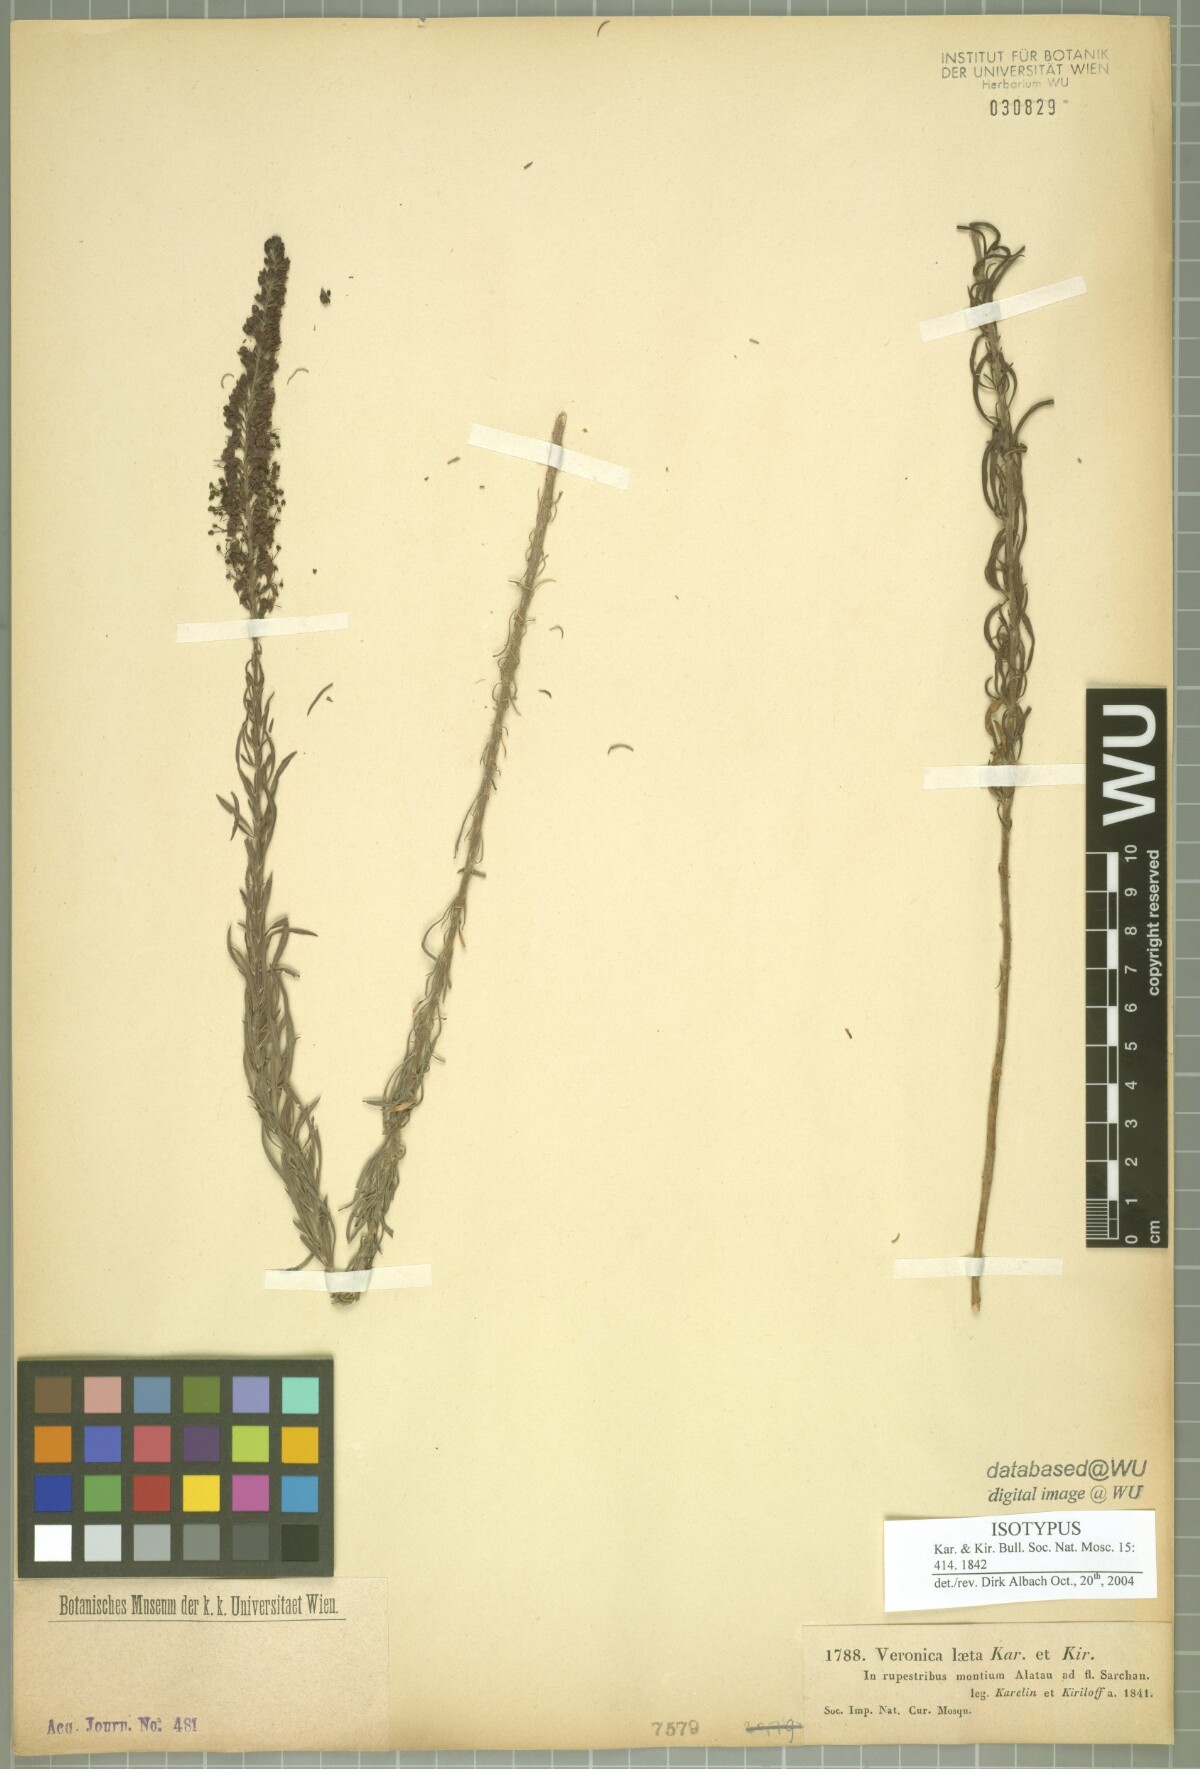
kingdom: Plantae
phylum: Tracheophyta
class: Magnoliopsida
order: Lamiales
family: Plantaginaceae
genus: Veronica
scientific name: Veronica laeta
